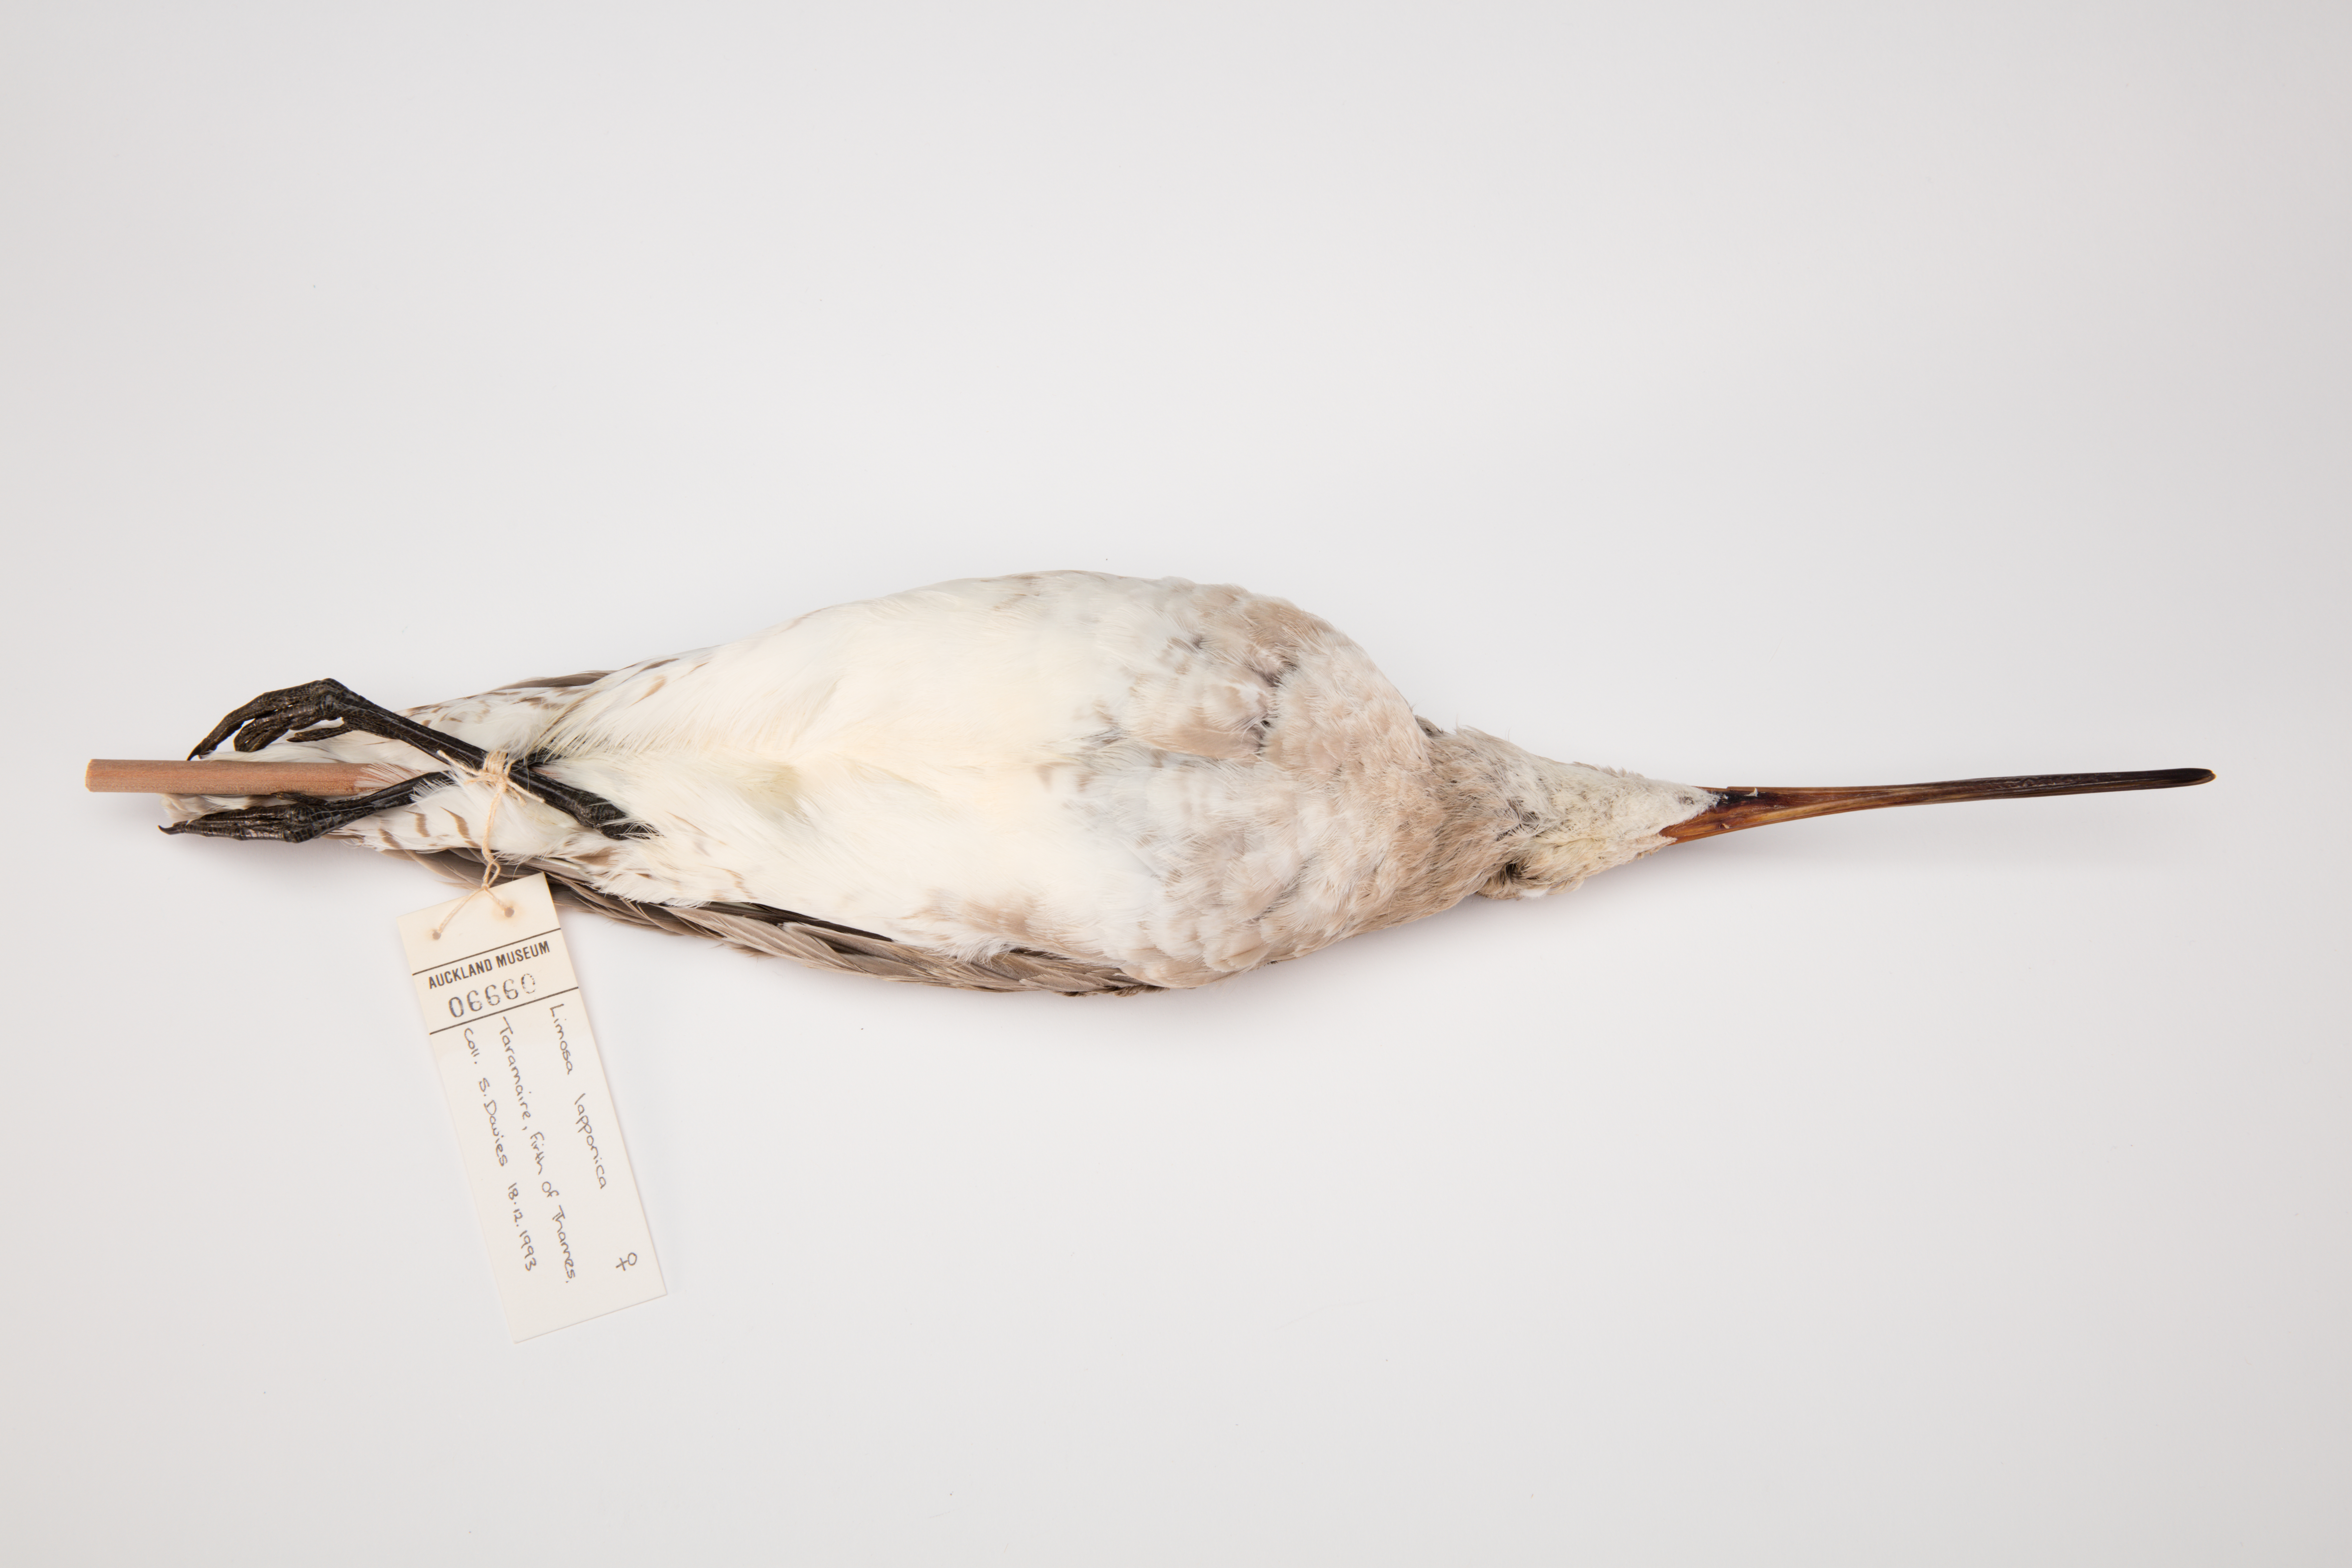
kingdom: Animalia
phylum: Chordata
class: Aves
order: Charadriiformes
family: Scolopacidae
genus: Limosa
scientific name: Limosa lapponica
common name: Bar-tailed godwit
